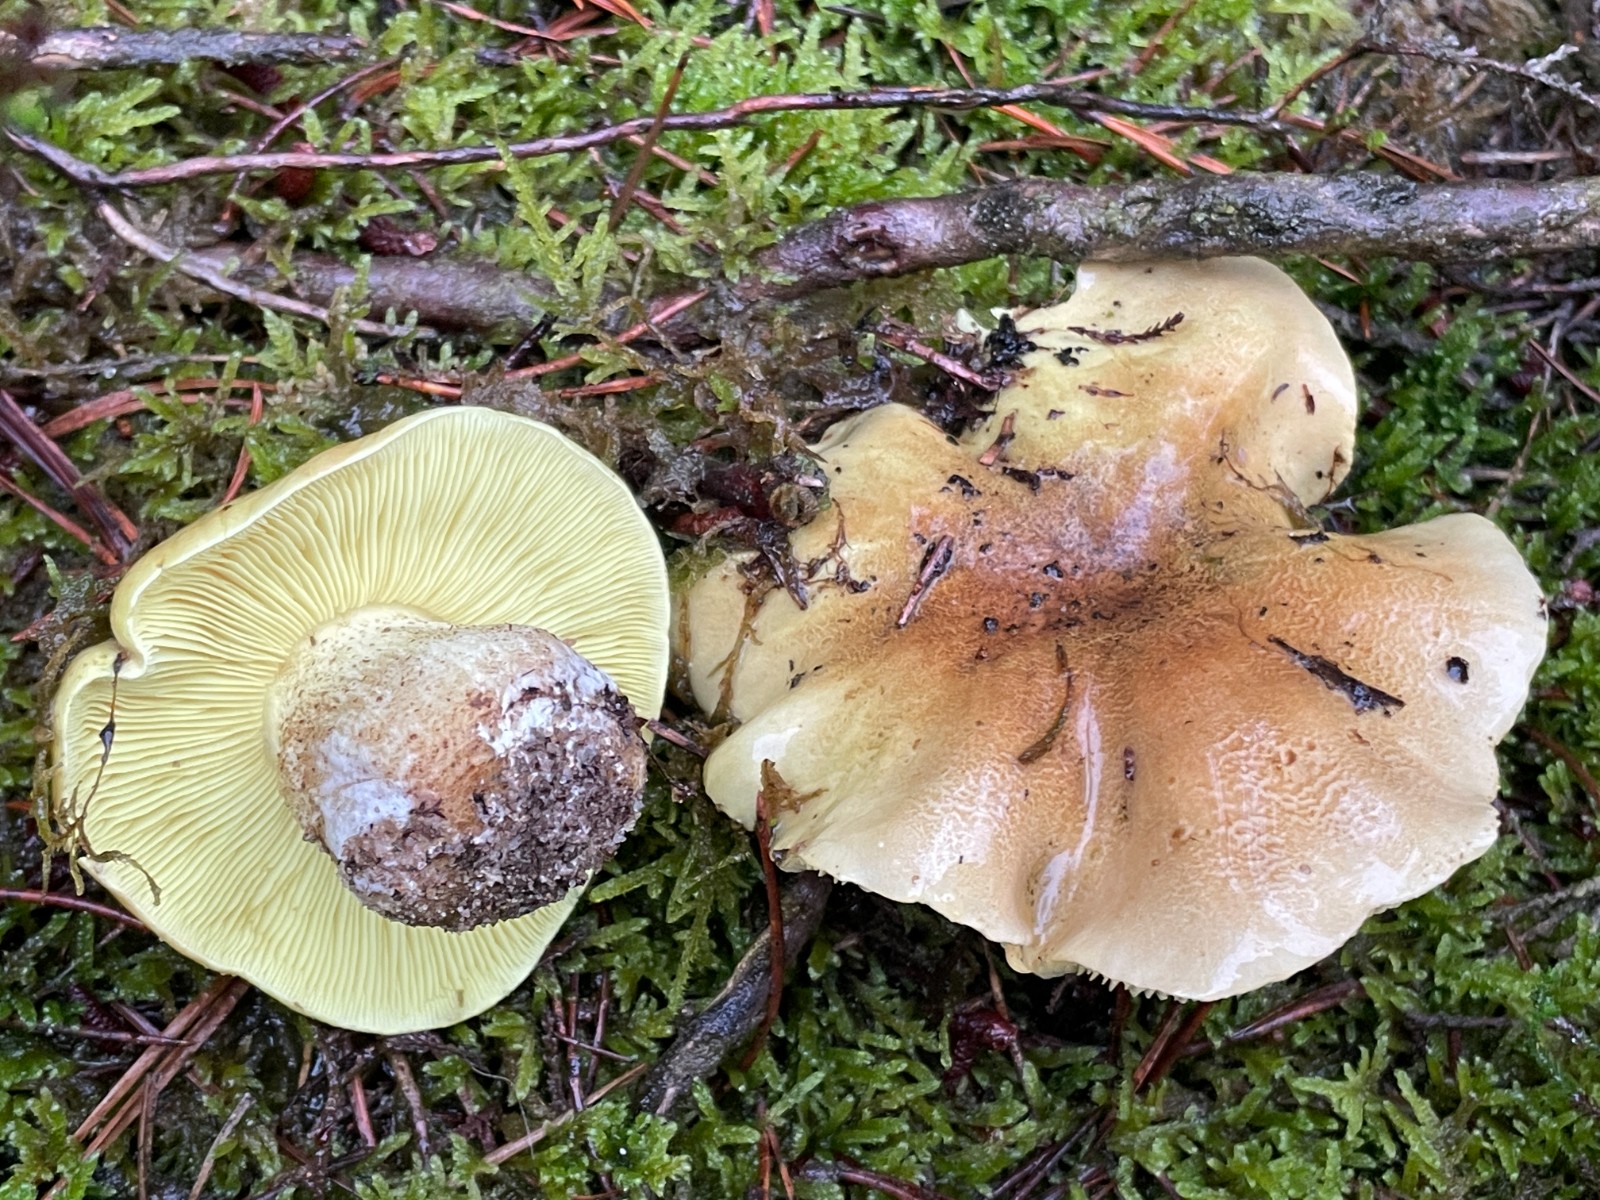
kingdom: Fungi
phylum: Basidiomycota
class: Agaricomycetes
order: Agaricales
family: Tricholomataceae
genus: Tricholoma
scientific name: Tricholoma equestre
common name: ægte ridderhat
